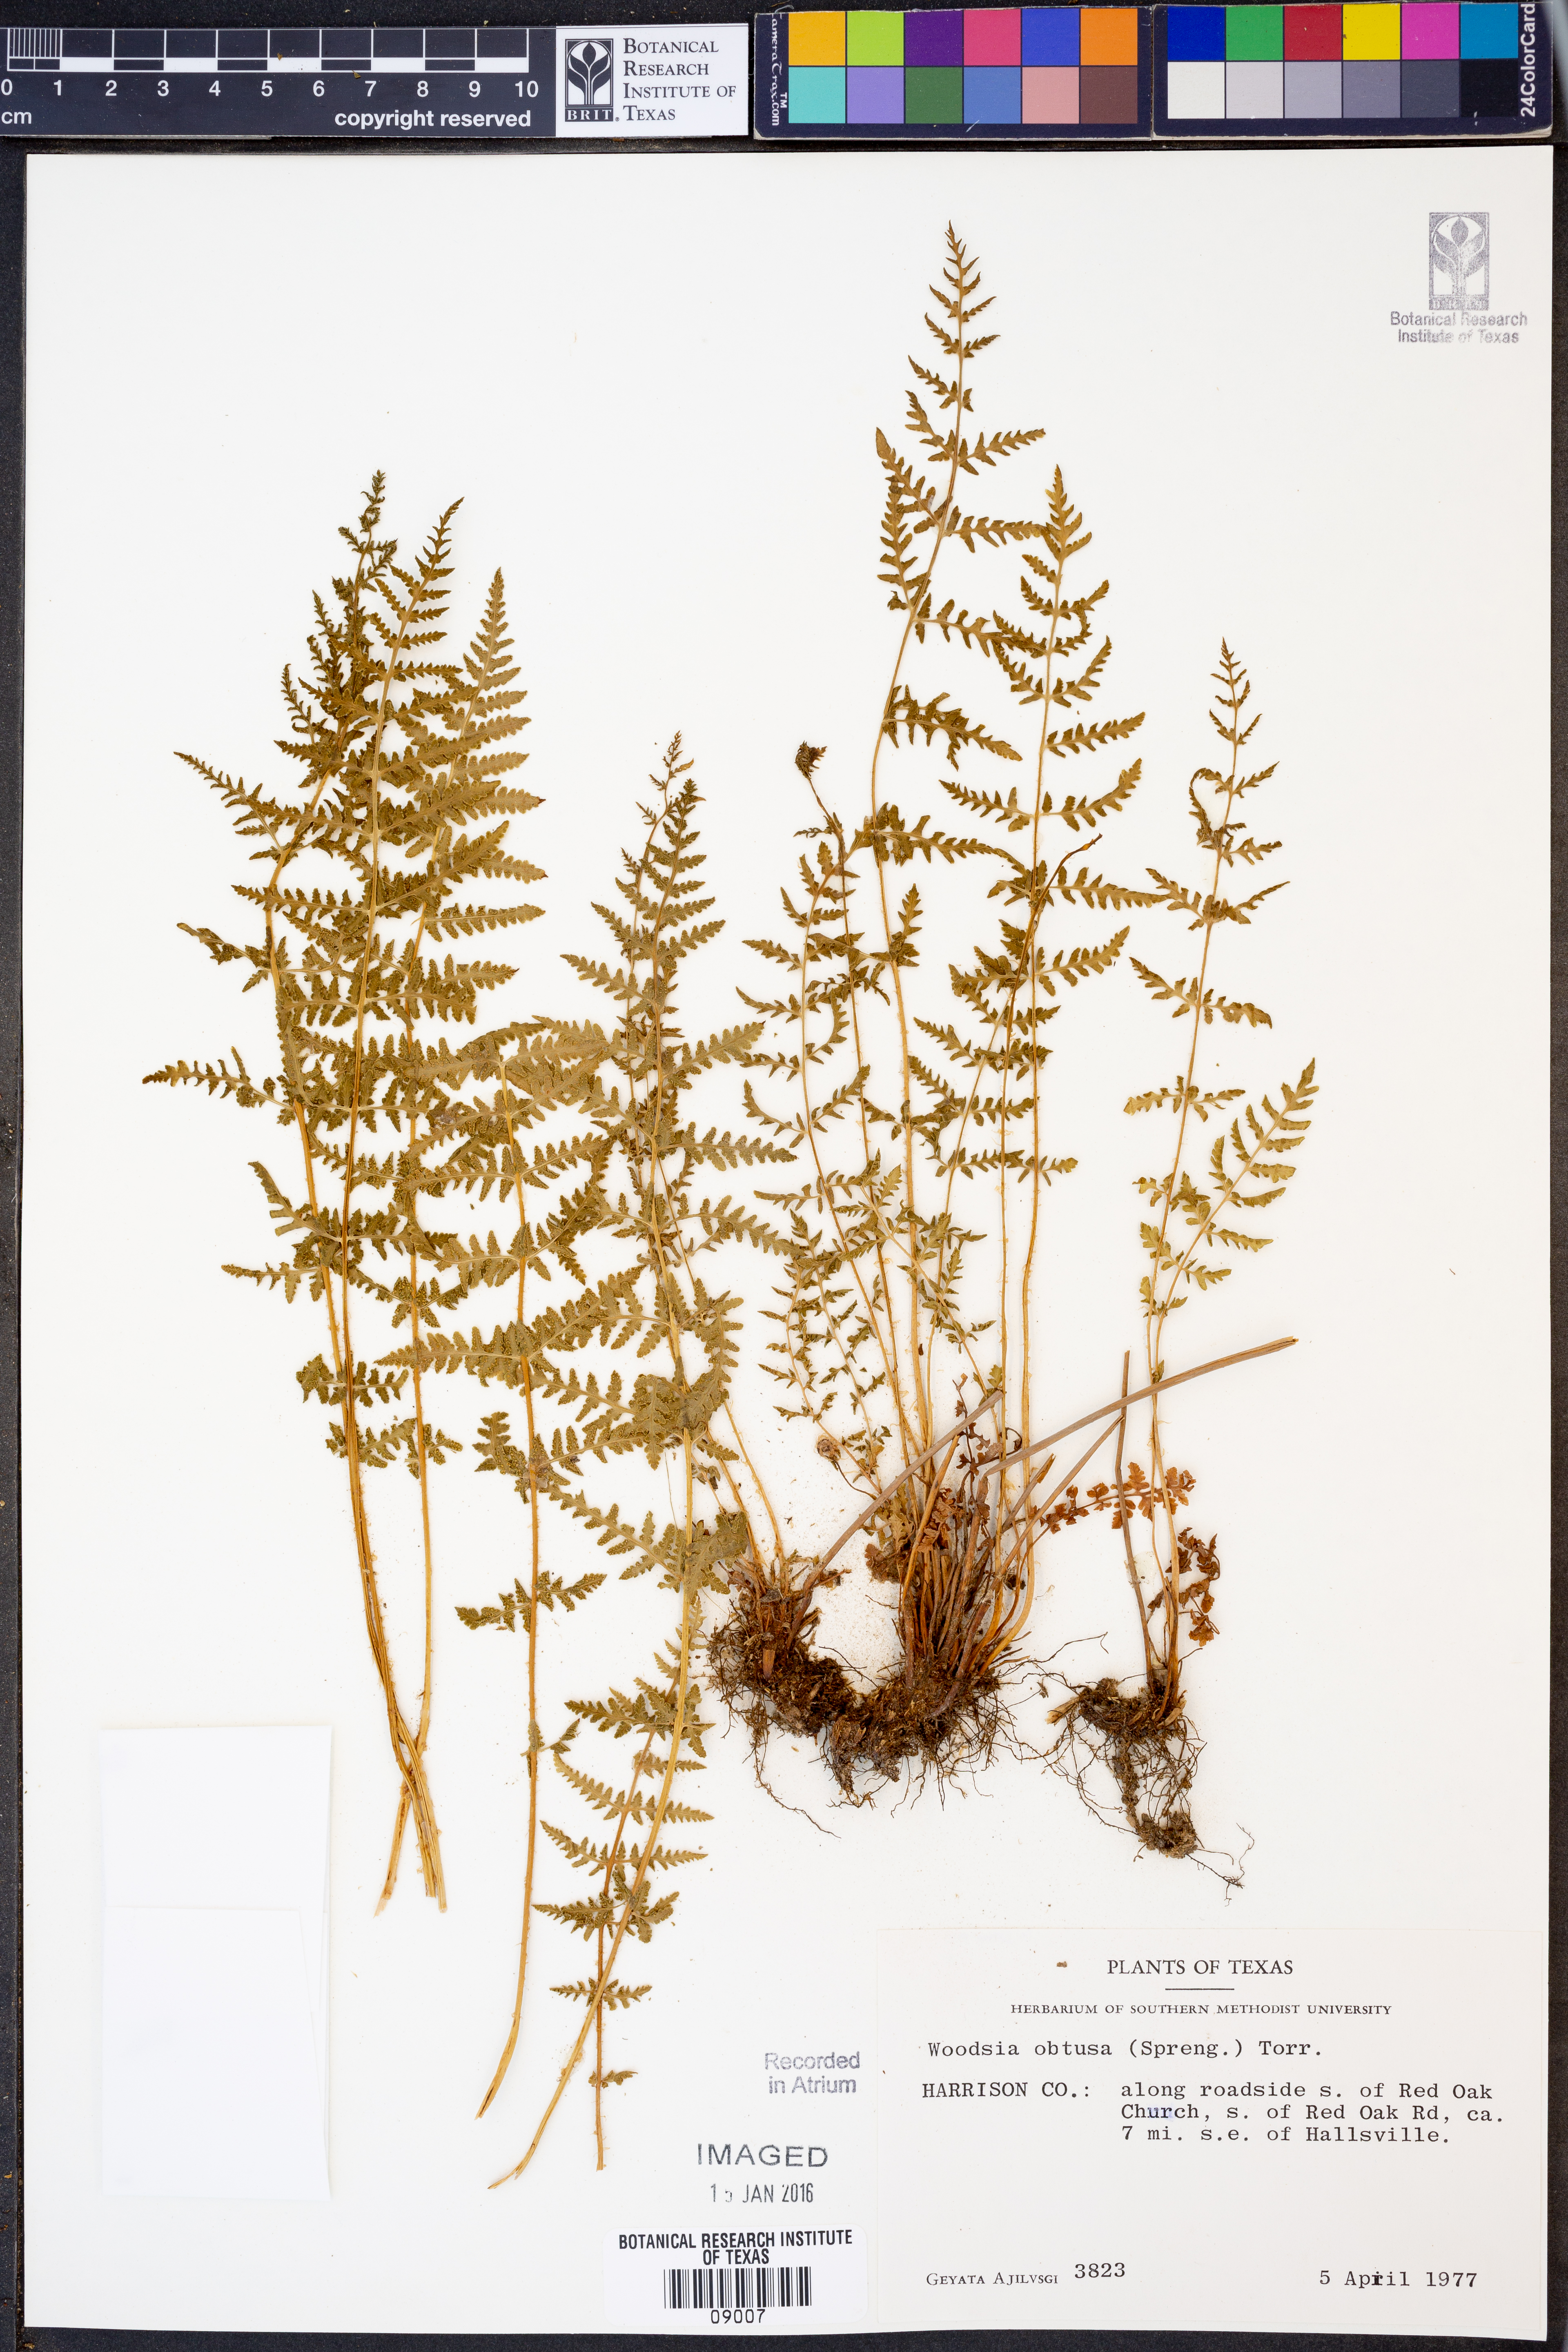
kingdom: Plantae
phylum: Tracheophyta
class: Polypodiopsida
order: Polypodiales
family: Woodsiaceae
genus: Physematium
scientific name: Physematium obtusum
